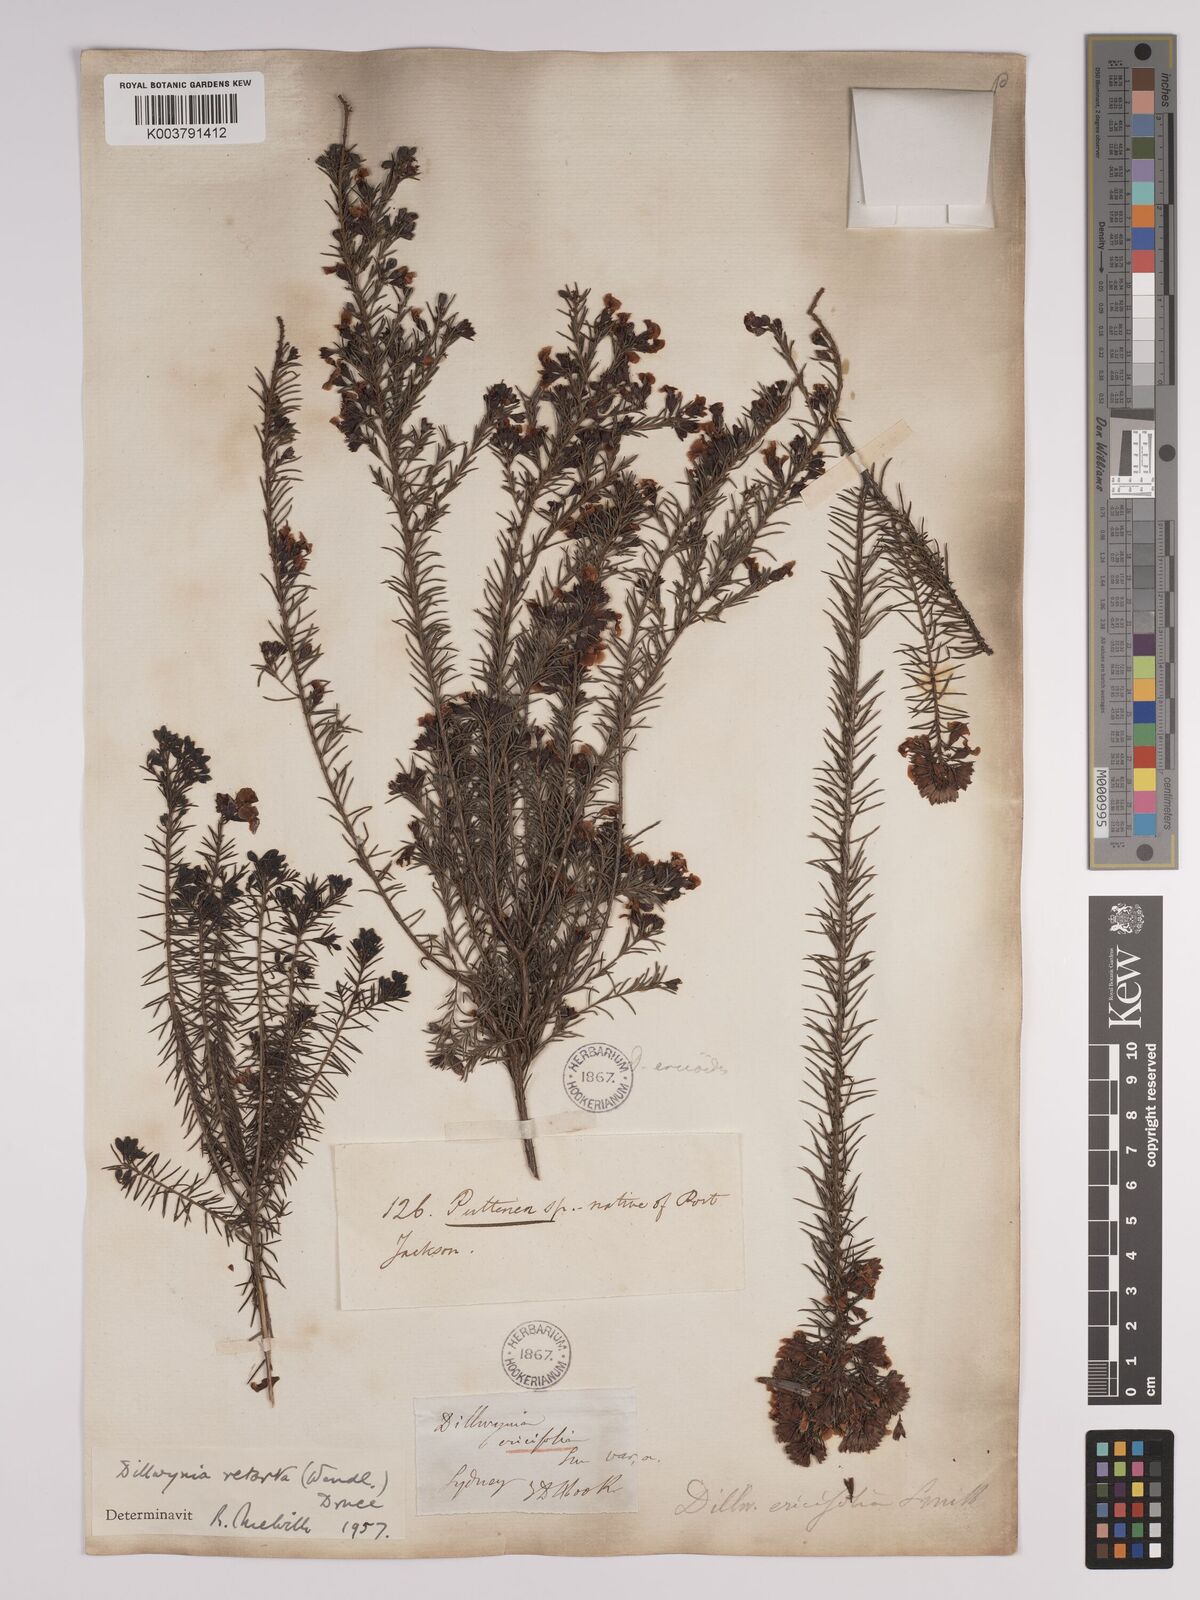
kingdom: Plantae
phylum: Tracheophyta
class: Magnoliopsida
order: Fabales
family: Fabaceae
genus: Dillwynia
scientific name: Dillwynia retorta
